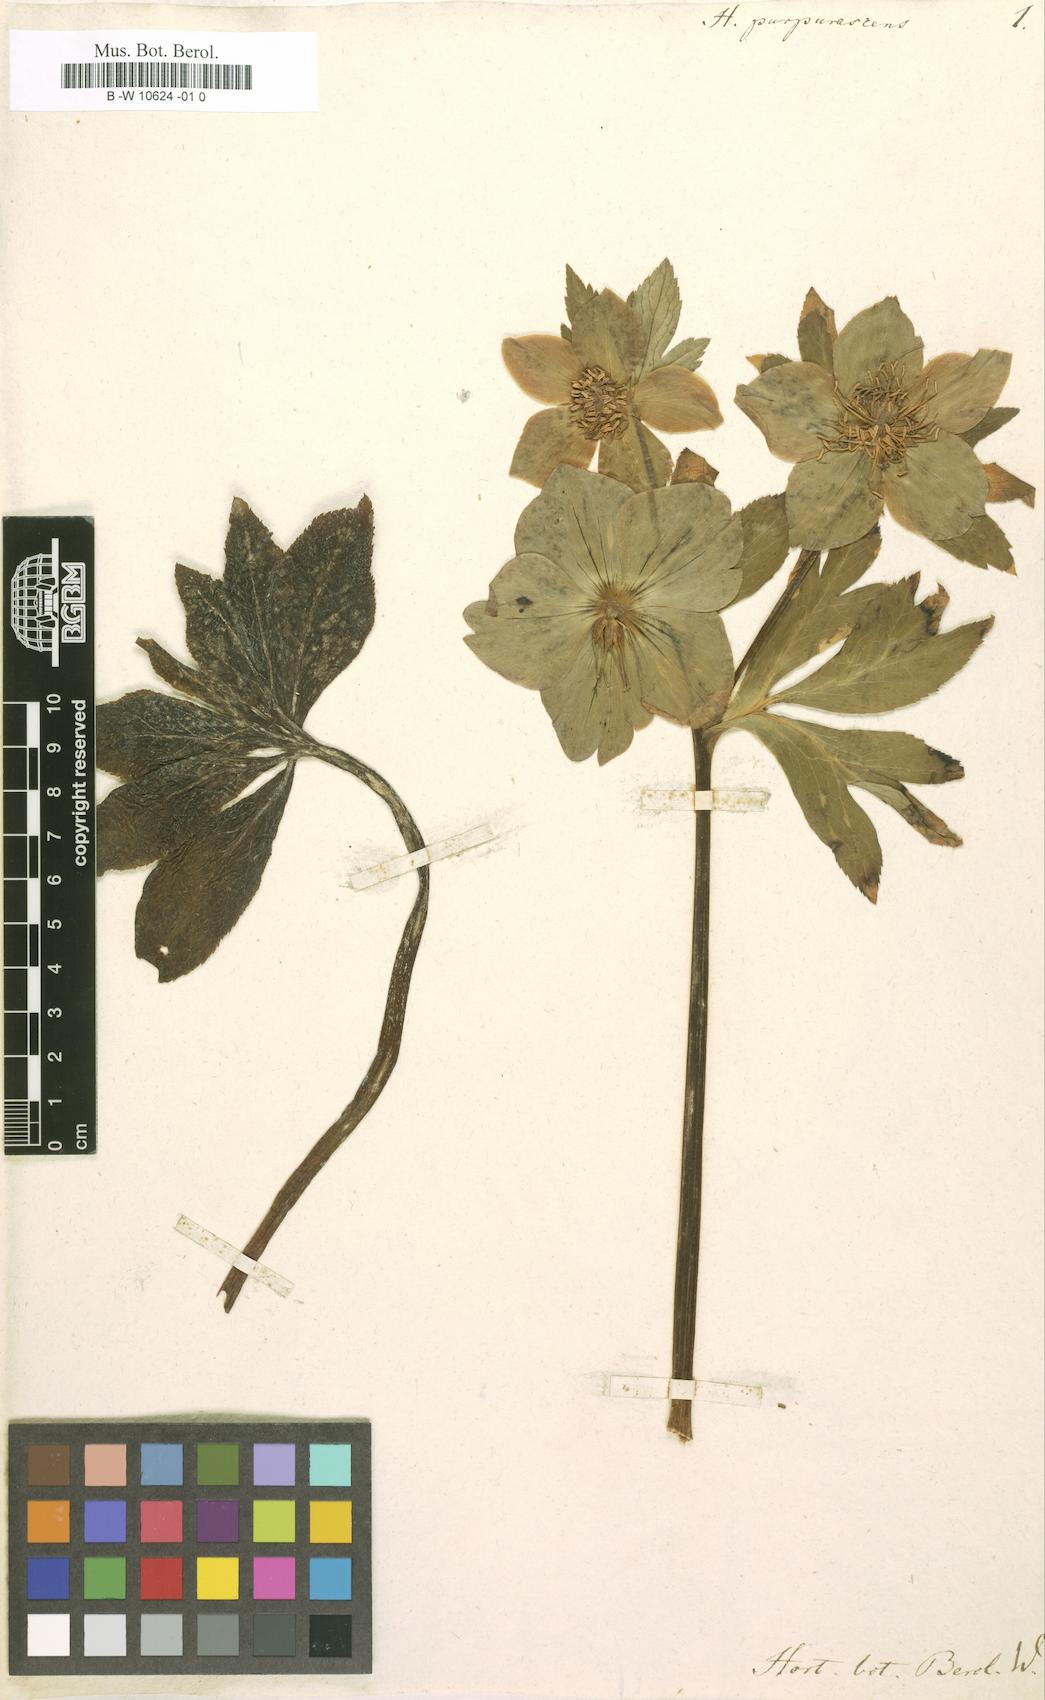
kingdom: Plantae
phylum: Tracheophyta
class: Magnoliopsida
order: Ranunculales
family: Ranunculaceae
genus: Helleborus
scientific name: Helleborus purpurascens
